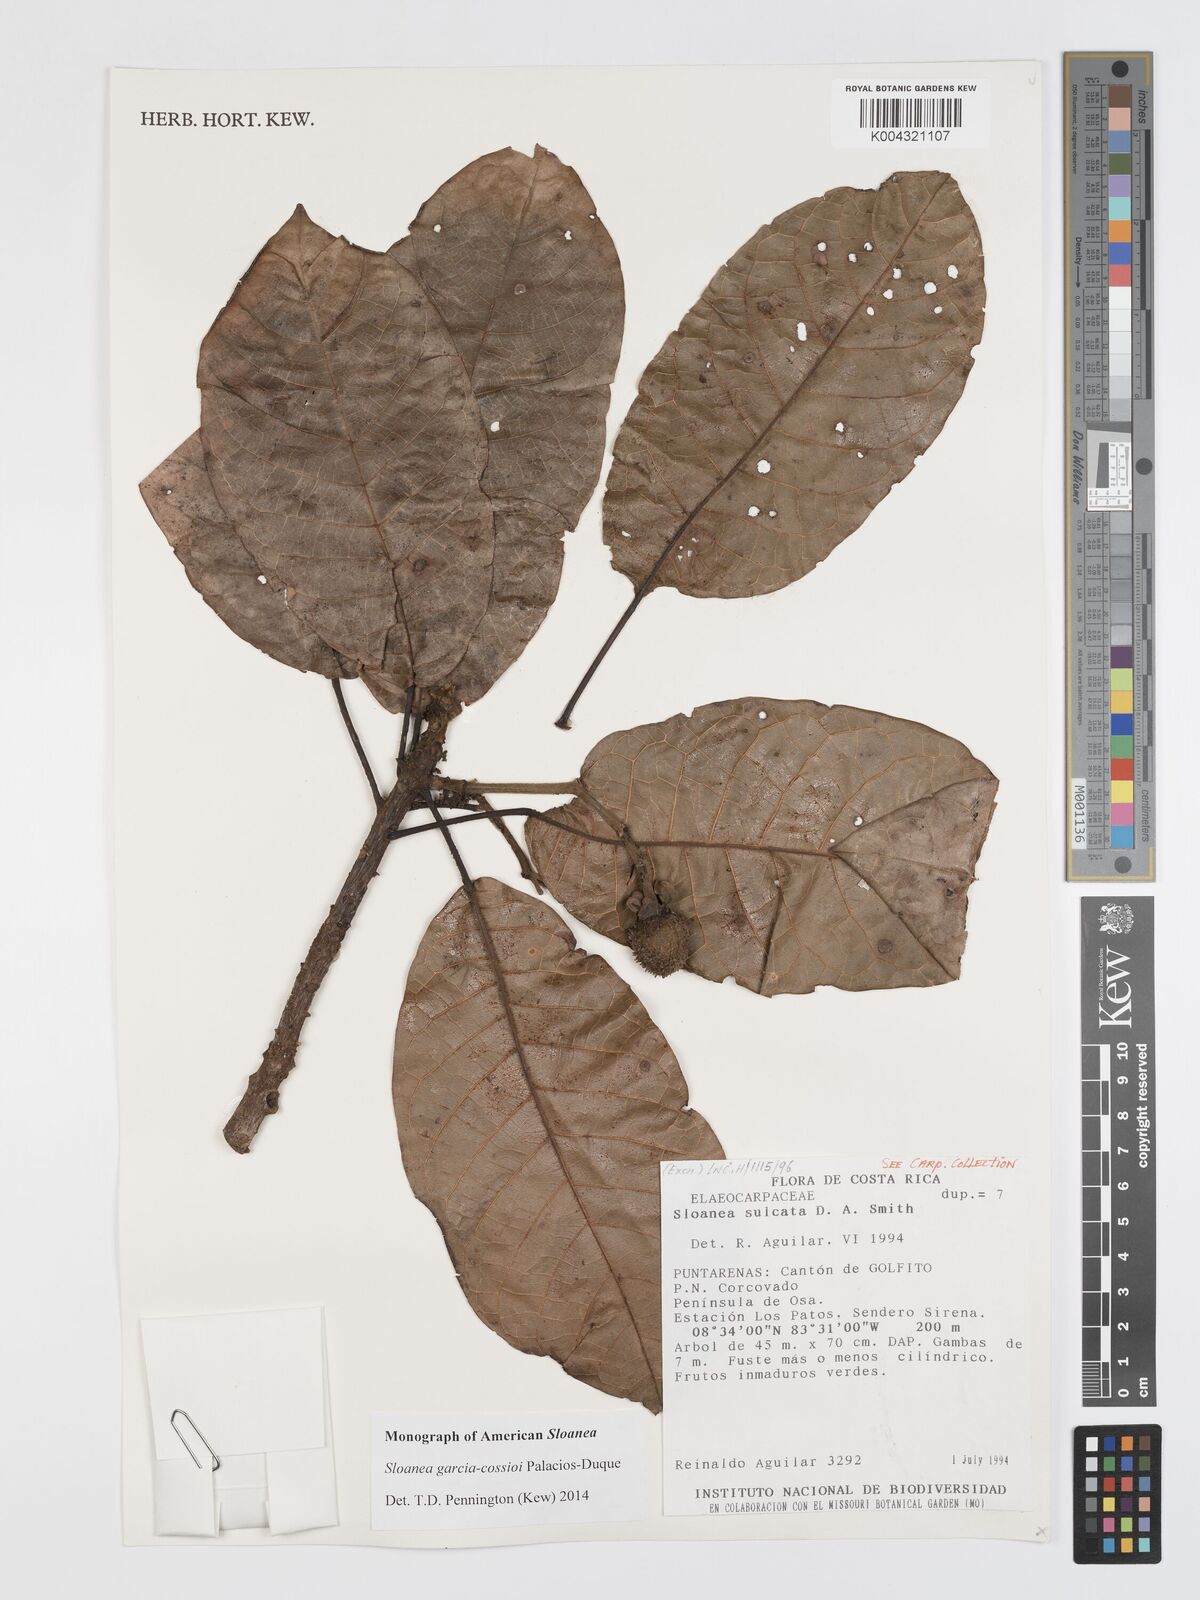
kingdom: Plantae
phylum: Tracheophyta
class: Magnoliopsida
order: Oxalidales
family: Elaeocarpaceae
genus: Sloanea
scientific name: Sloanea garcia-cossioi
